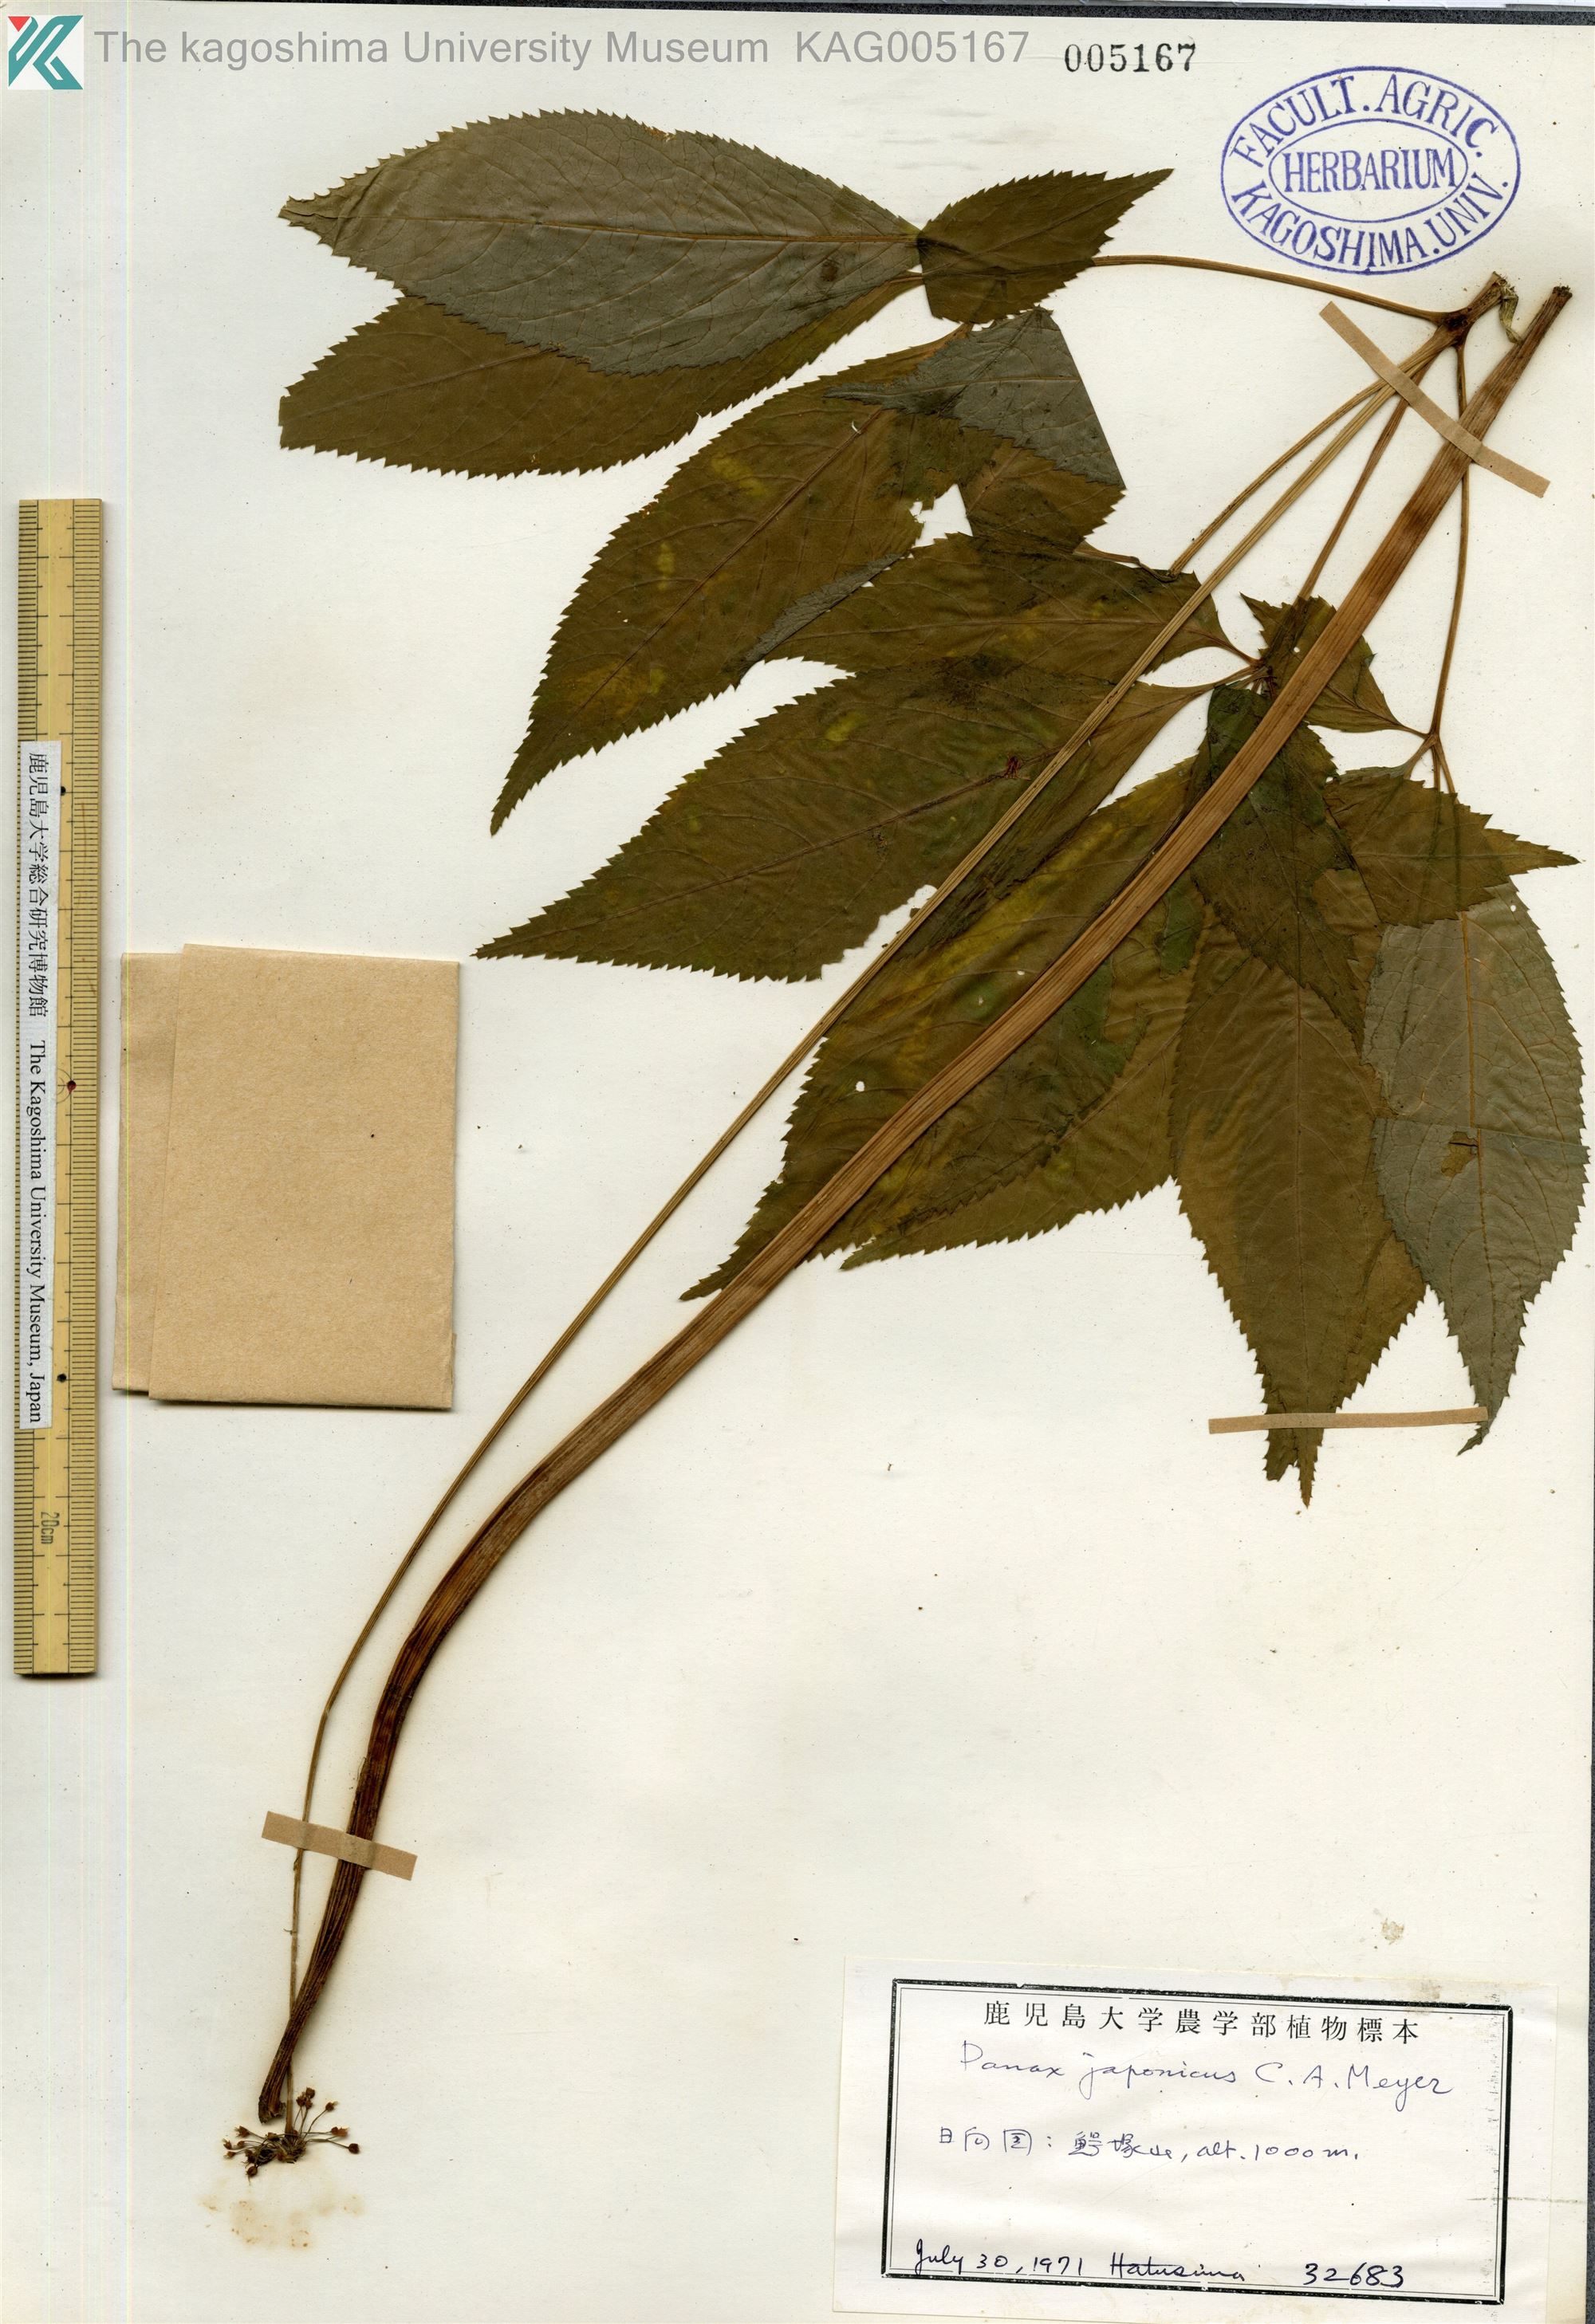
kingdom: Plantae
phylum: Tracheophyta
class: Magnoliopsida
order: Apiales
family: Araliaceae
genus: Panax
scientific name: Panax japonicus
